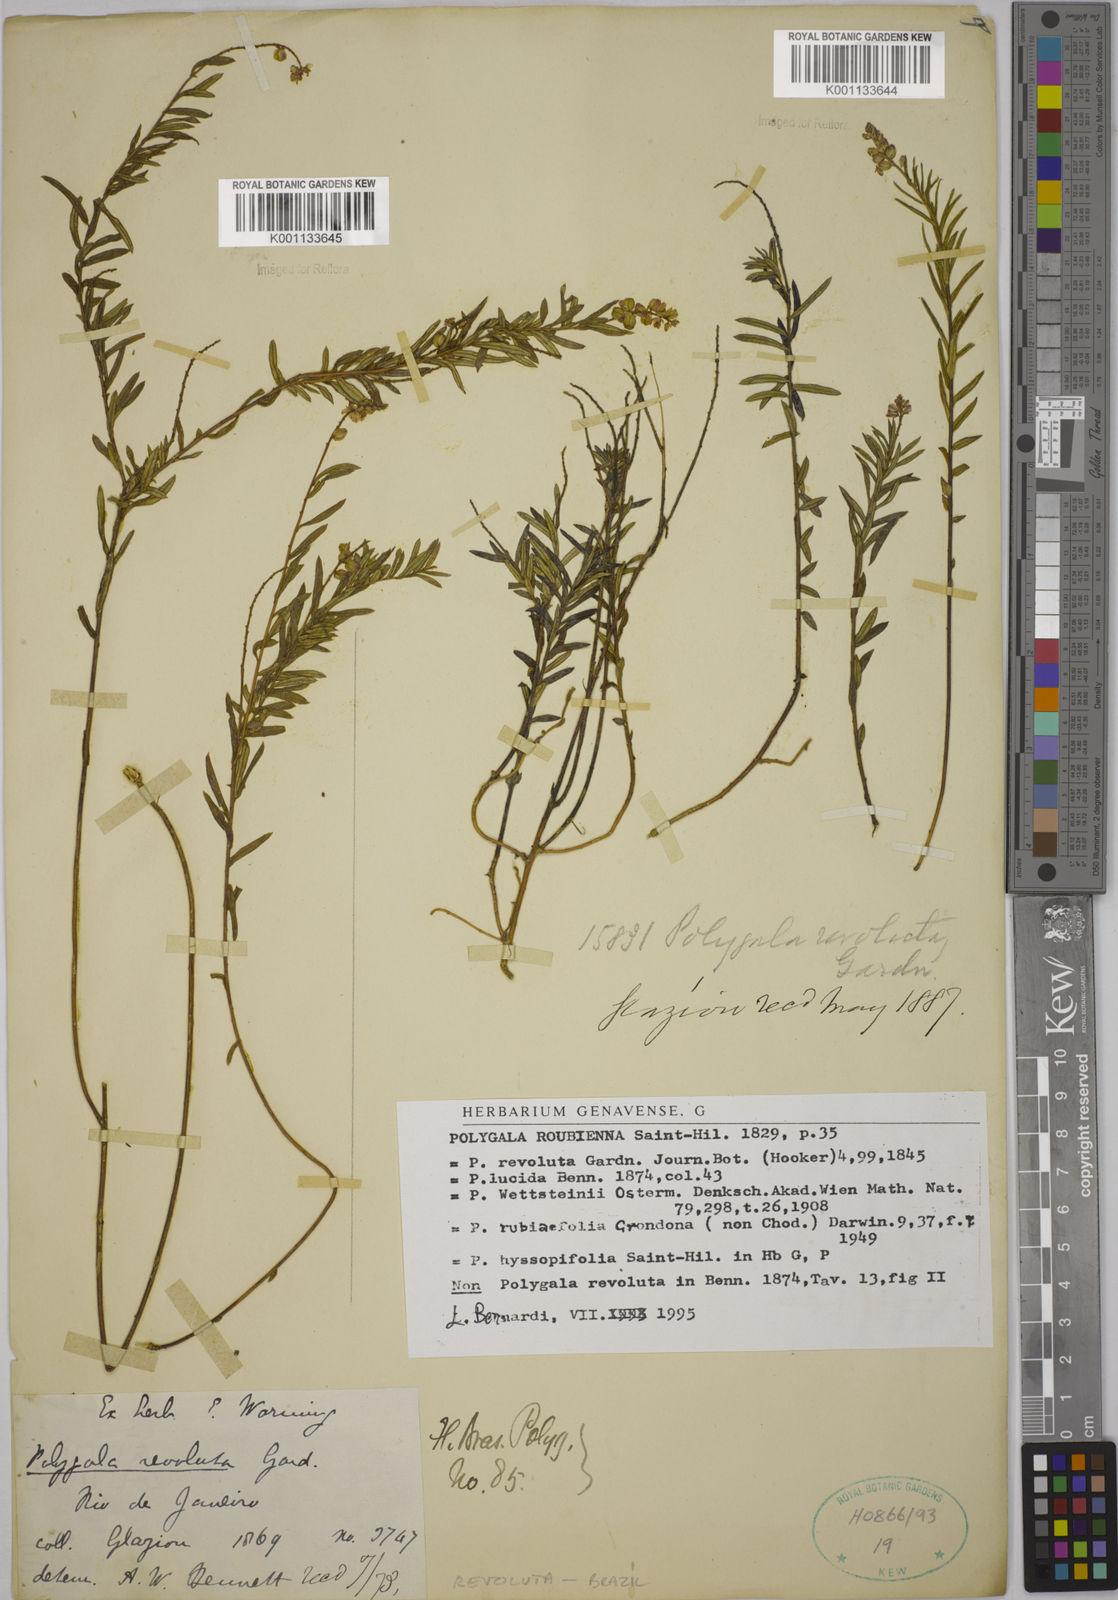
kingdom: Plantae
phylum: Tracheophyta
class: Magnoliopsida
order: Fabales
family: Polygalaceae
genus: Polygala
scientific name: Polygala revoluta
